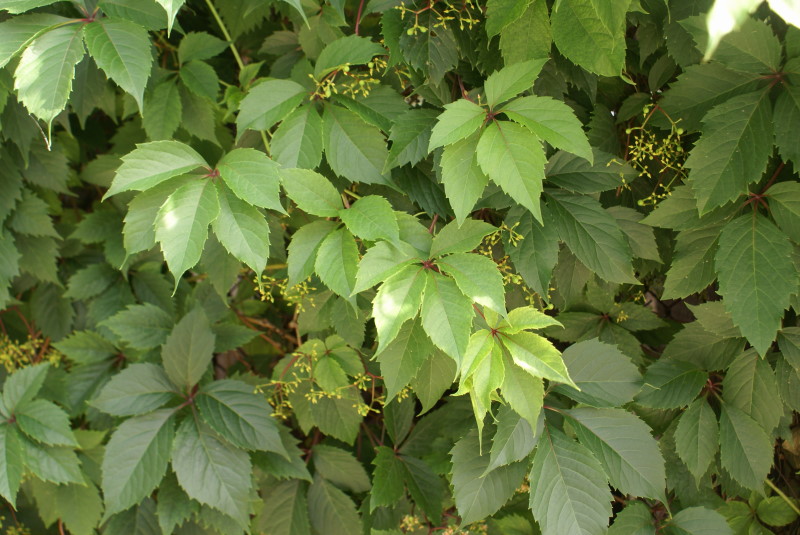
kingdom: Plantae
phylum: Tracheophyta
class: Magnoliopsida
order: Vitales
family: Vitaceae
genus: Parthenocissus
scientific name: Parthenocissus quinquefolia
